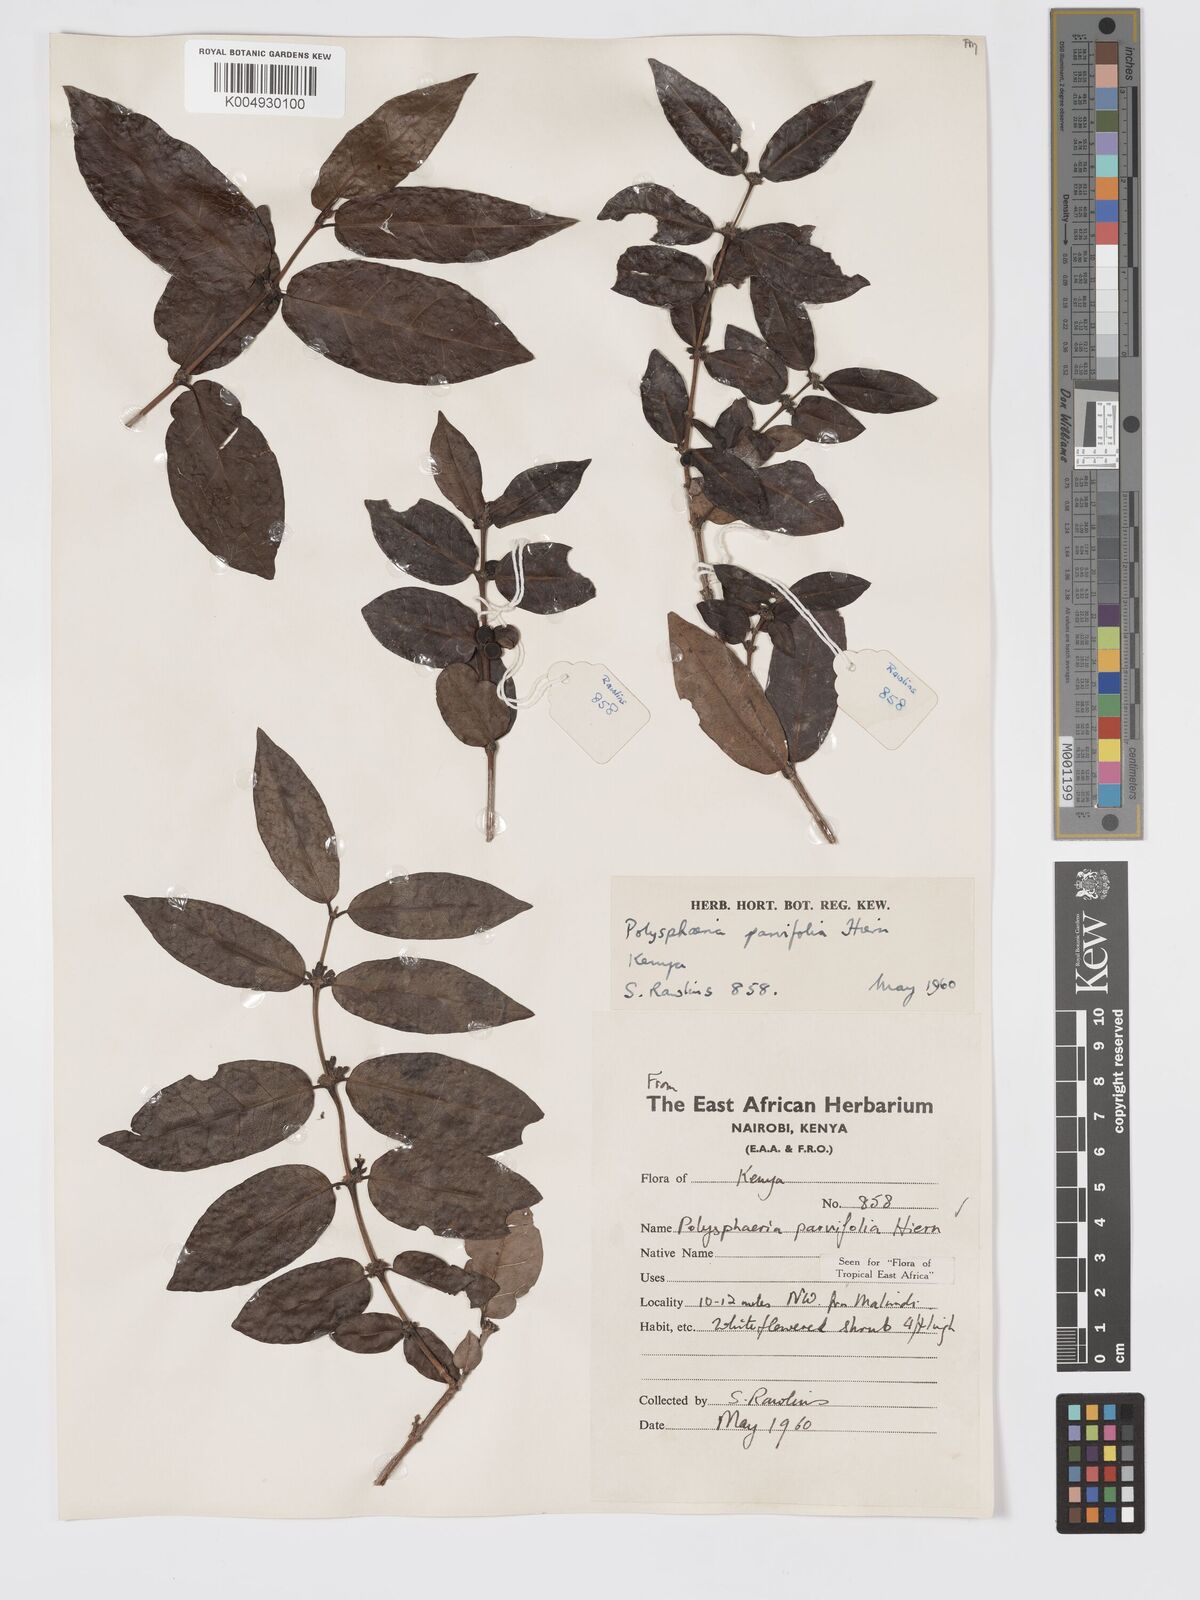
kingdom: Plantae
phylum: Tracheophyta
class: Magnoliopsida
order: Gentianales
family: Rubiaceae
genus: Eumachia
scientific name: Eumachia parviflora
